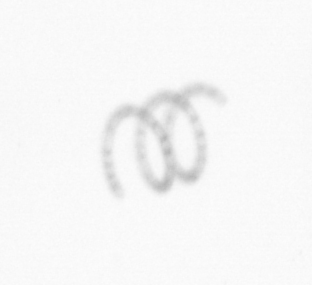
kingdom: Chromista
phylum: Ochrophyta
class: Bacillariophyceae
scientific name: Bacillariophyceae
